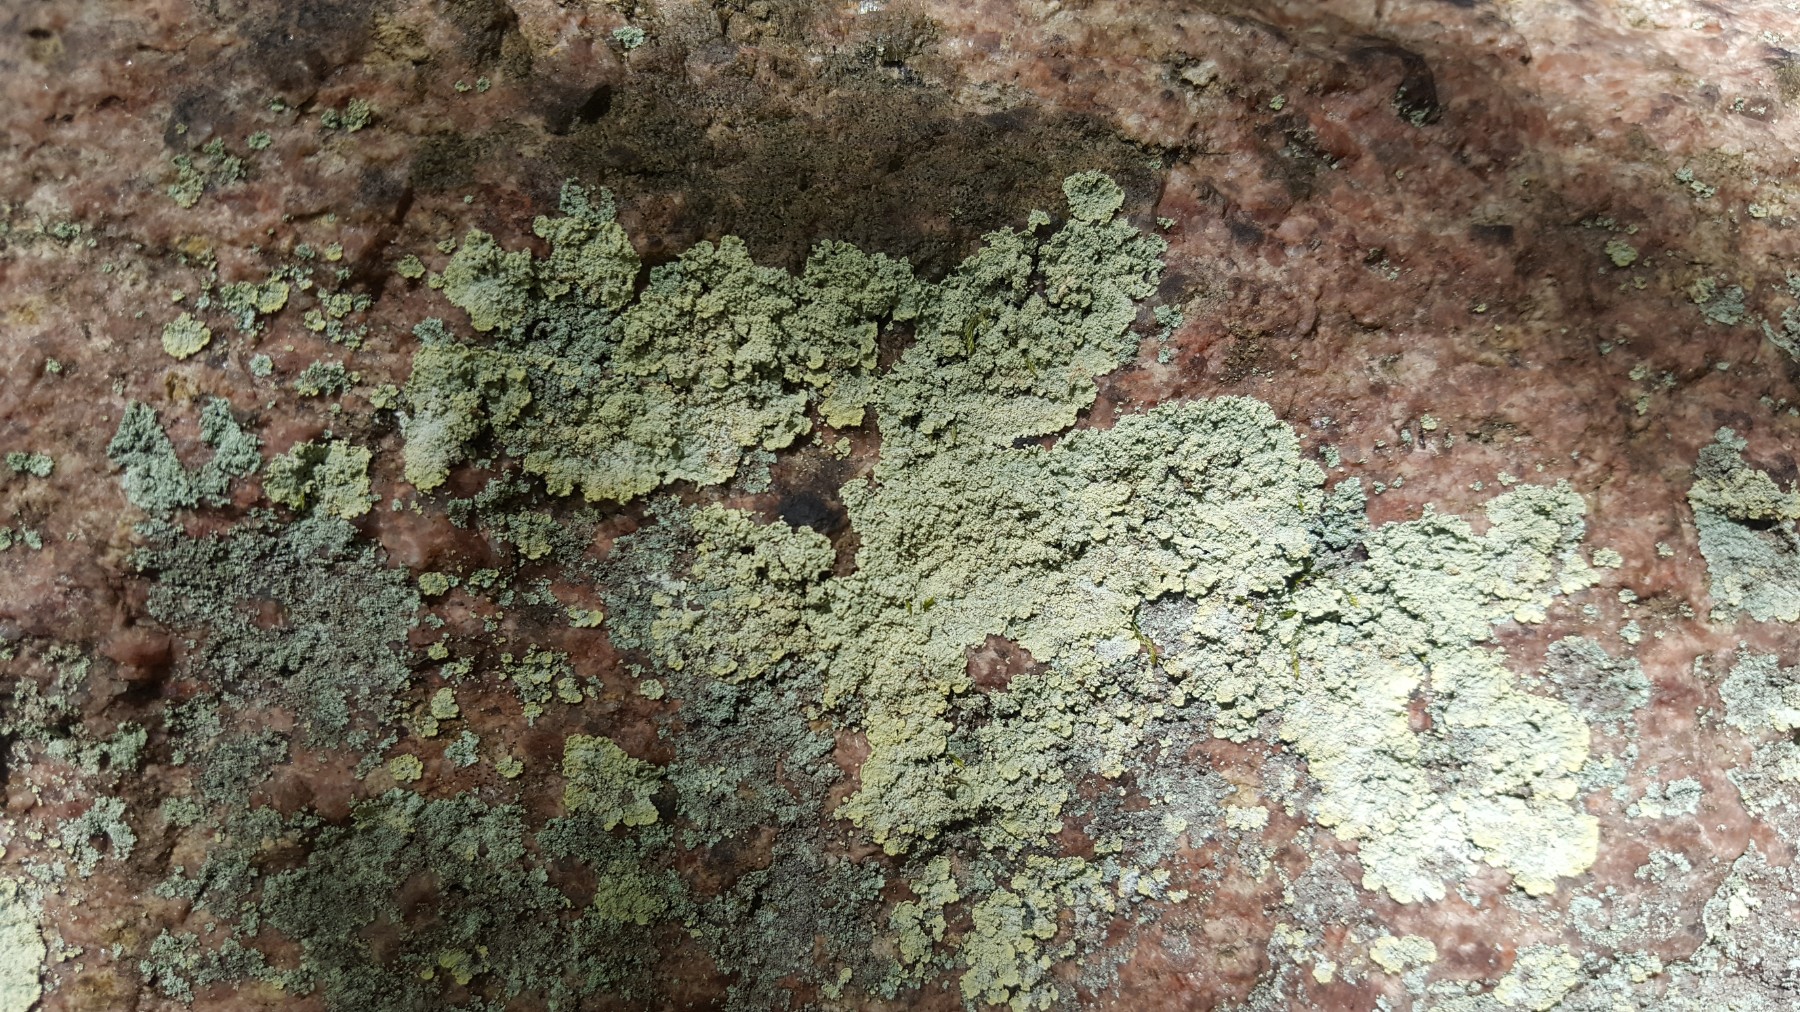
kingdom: Fungi
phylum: Ascomycota
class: Lecanoromycetes
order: Lecanorales
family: Stereocaulaceae
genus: Lepraria
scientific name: Lepraria membranacea
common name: bredfliget støvlav
